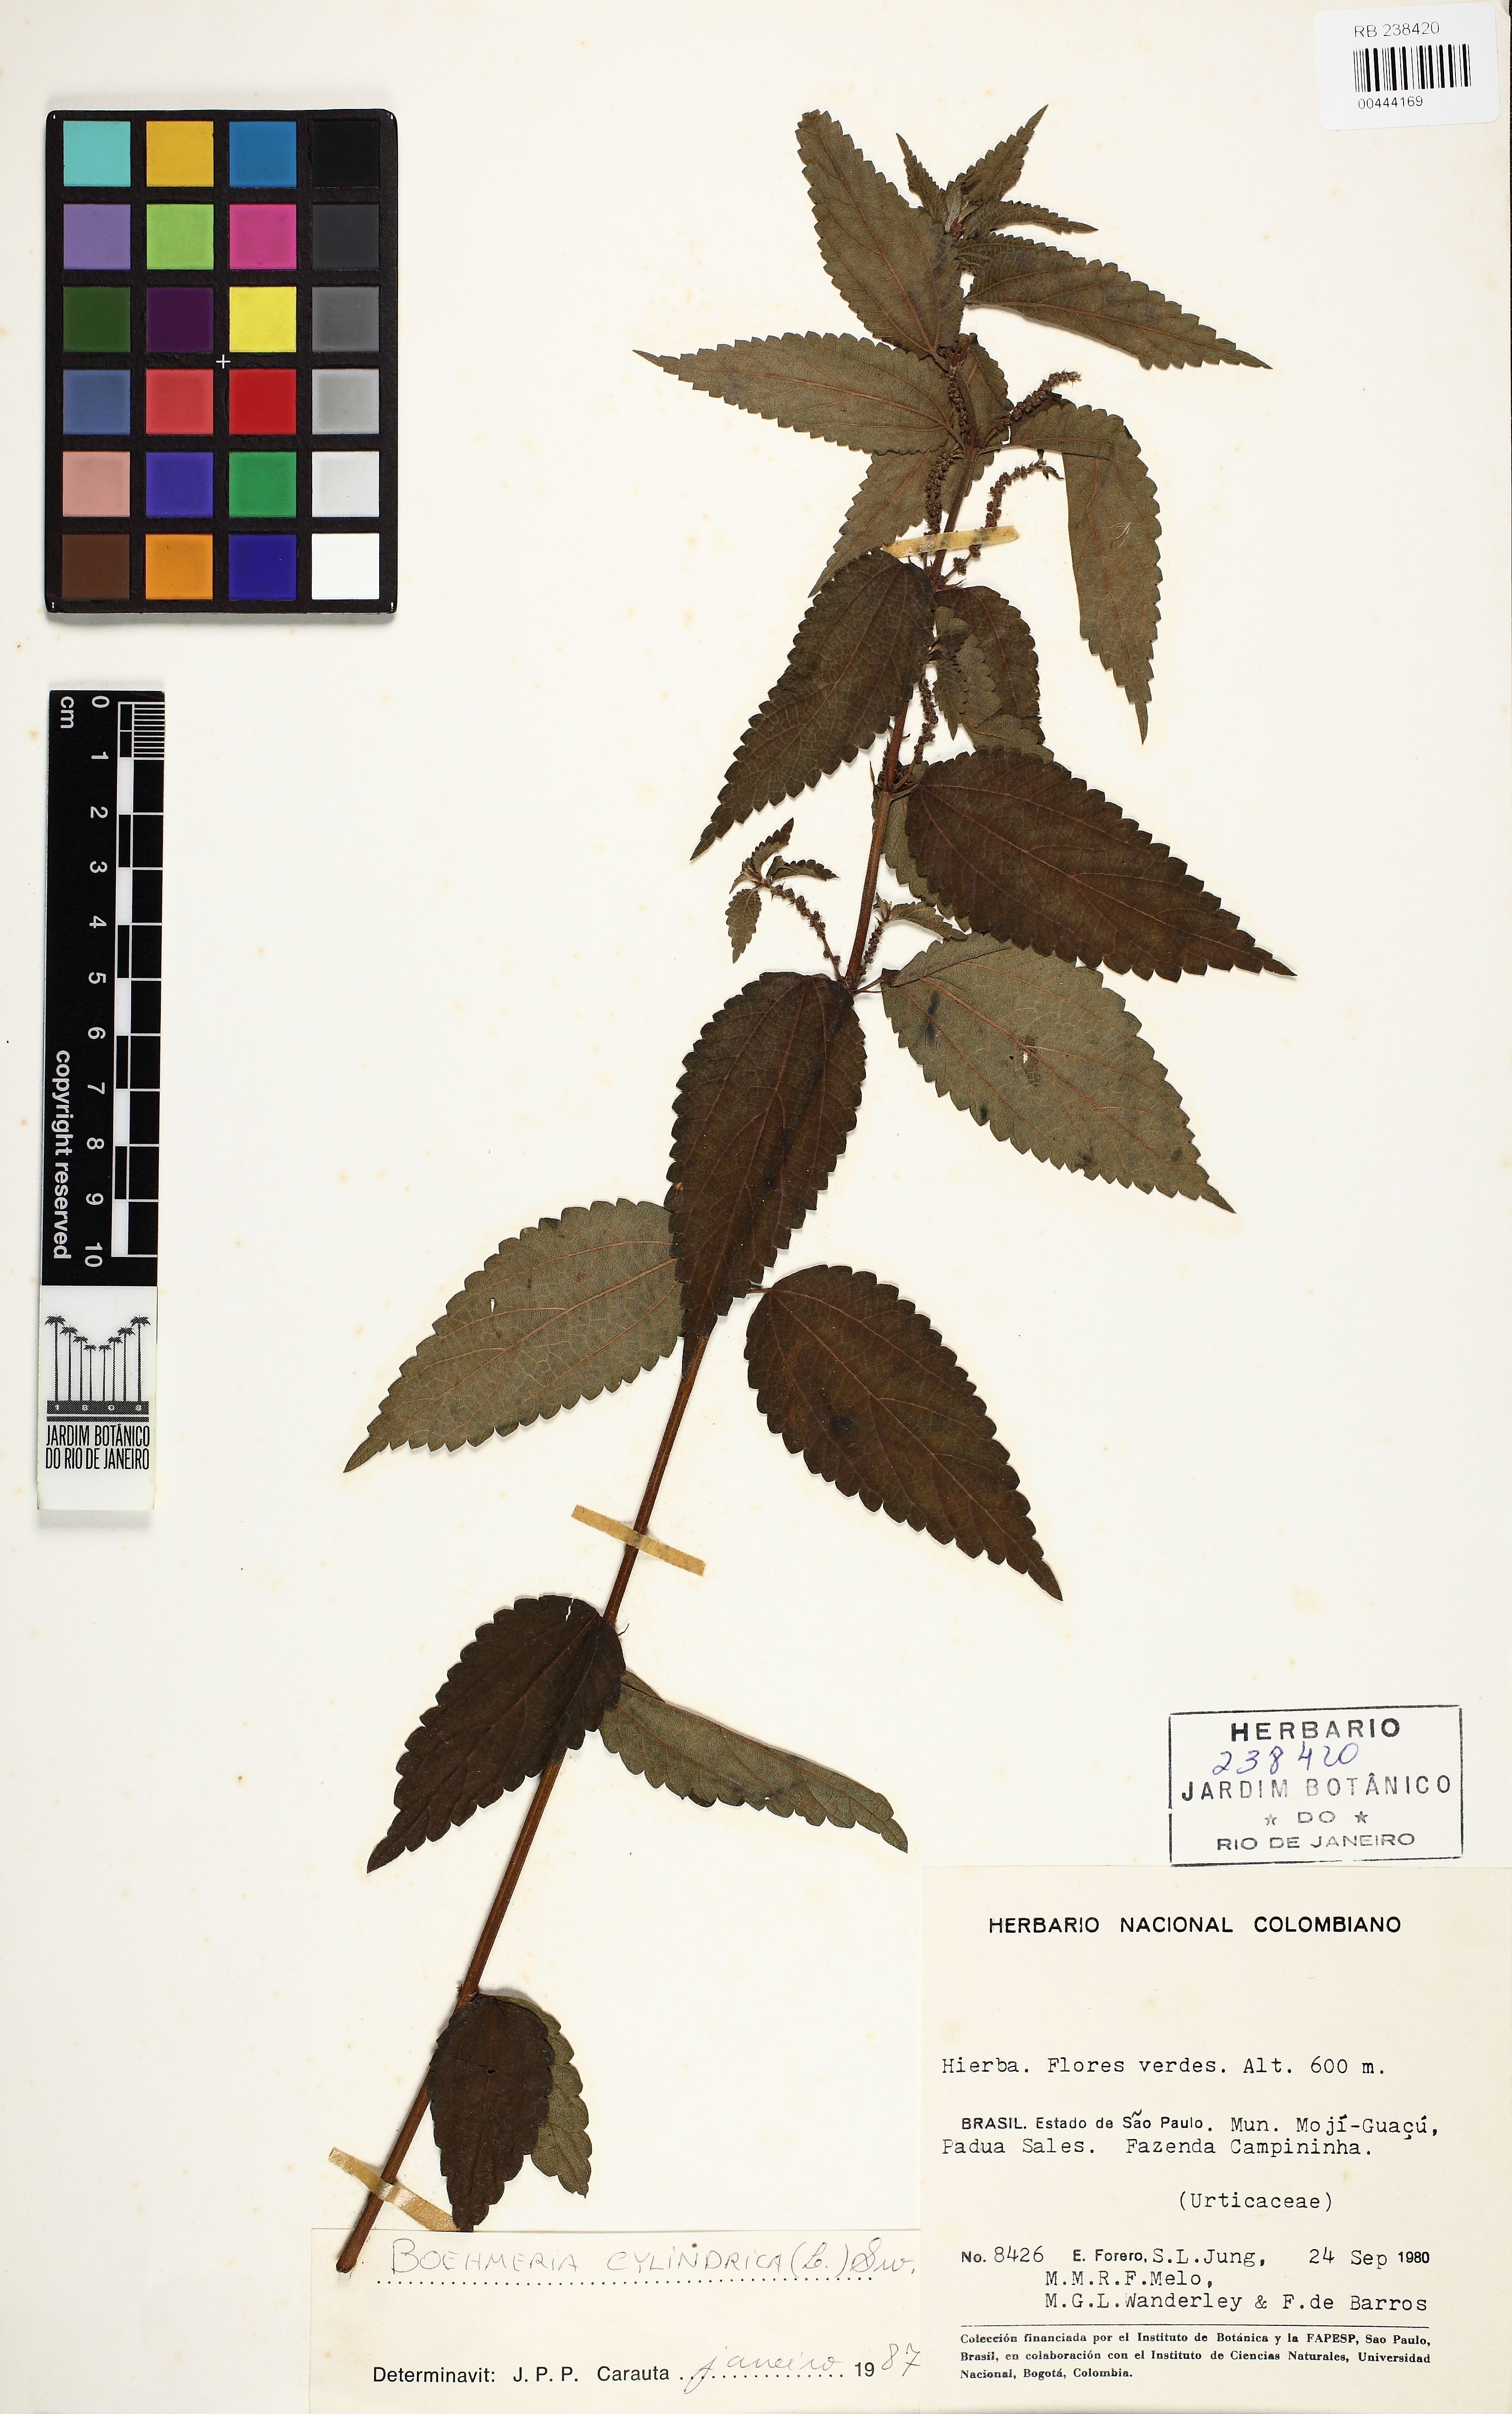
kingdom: Plantae
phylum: Tracheophyta
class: Magnoliopsida
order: Rosales
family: Urticaceae
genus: Boehmeria
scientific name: Boehmeria cylindrica
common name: Bog-hemp
